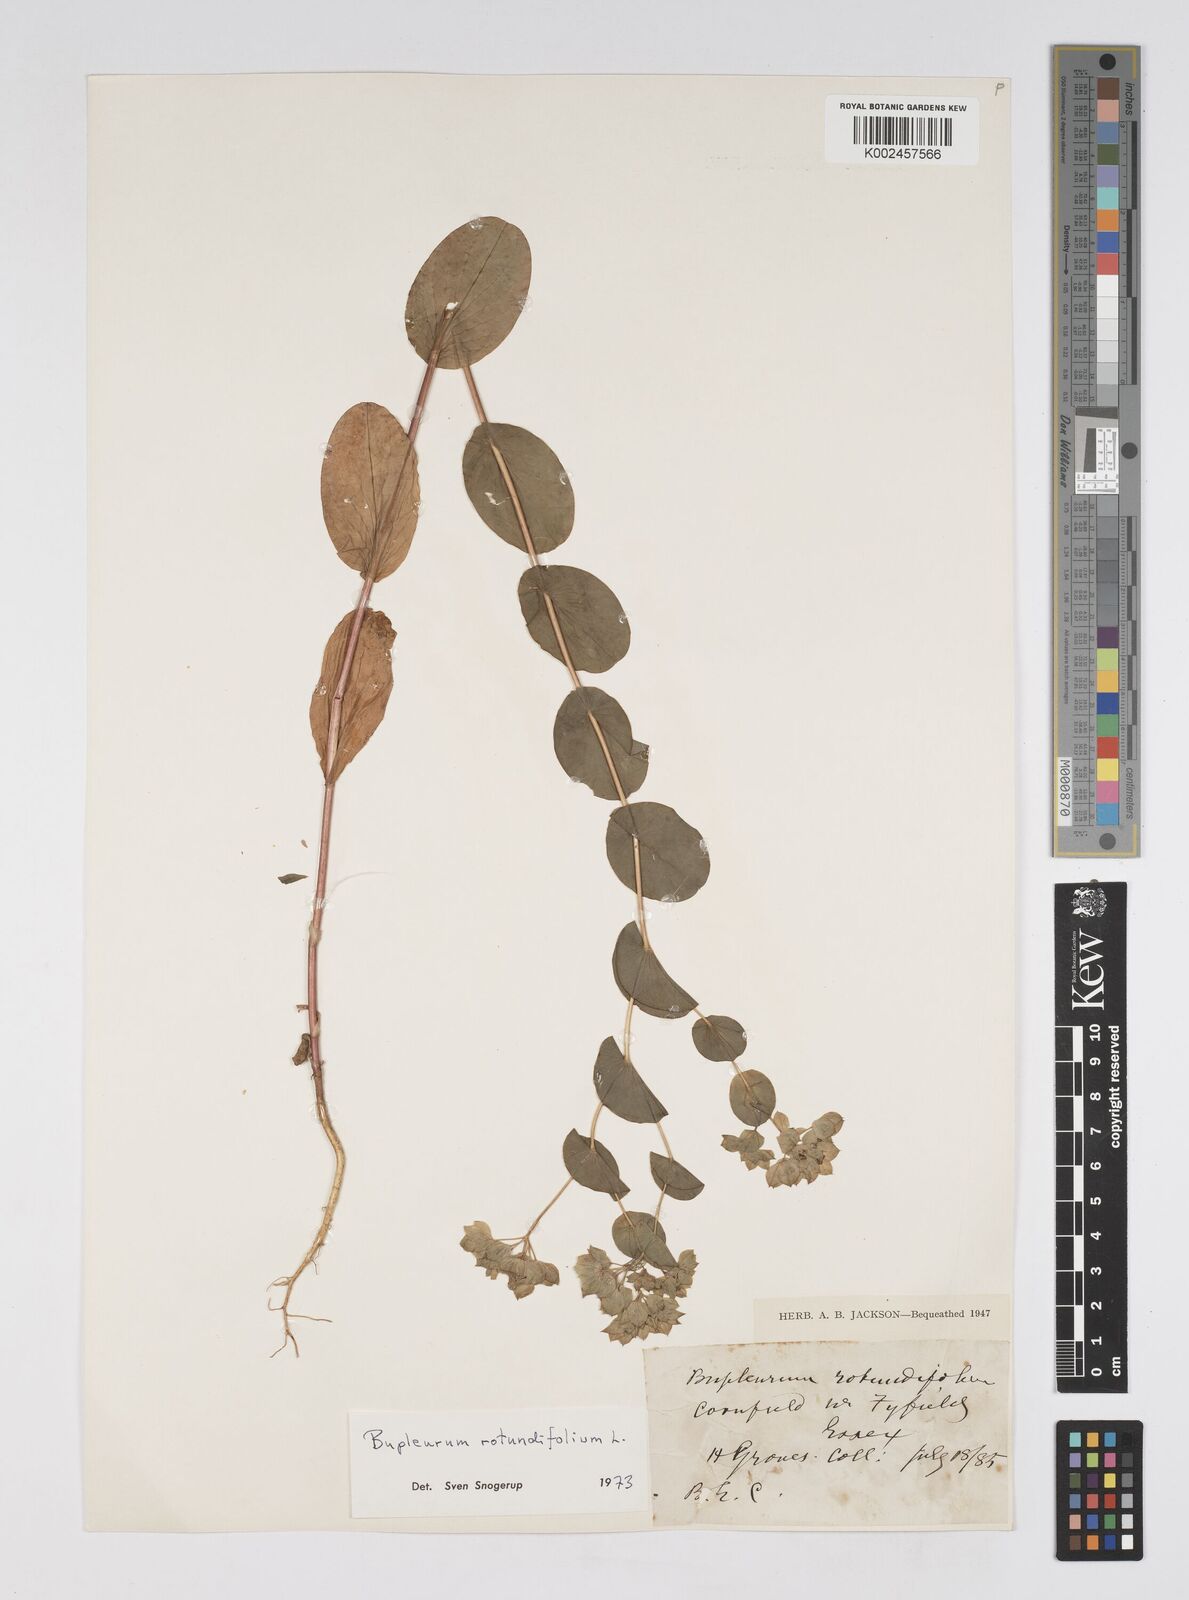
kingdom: Plantae
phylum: Tracheophyta
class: Magnoliopsida
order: Apiales
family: Apiaceae
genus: Bupleurum
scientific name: Bupleurum rotundifolium
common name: Thorow-wax
